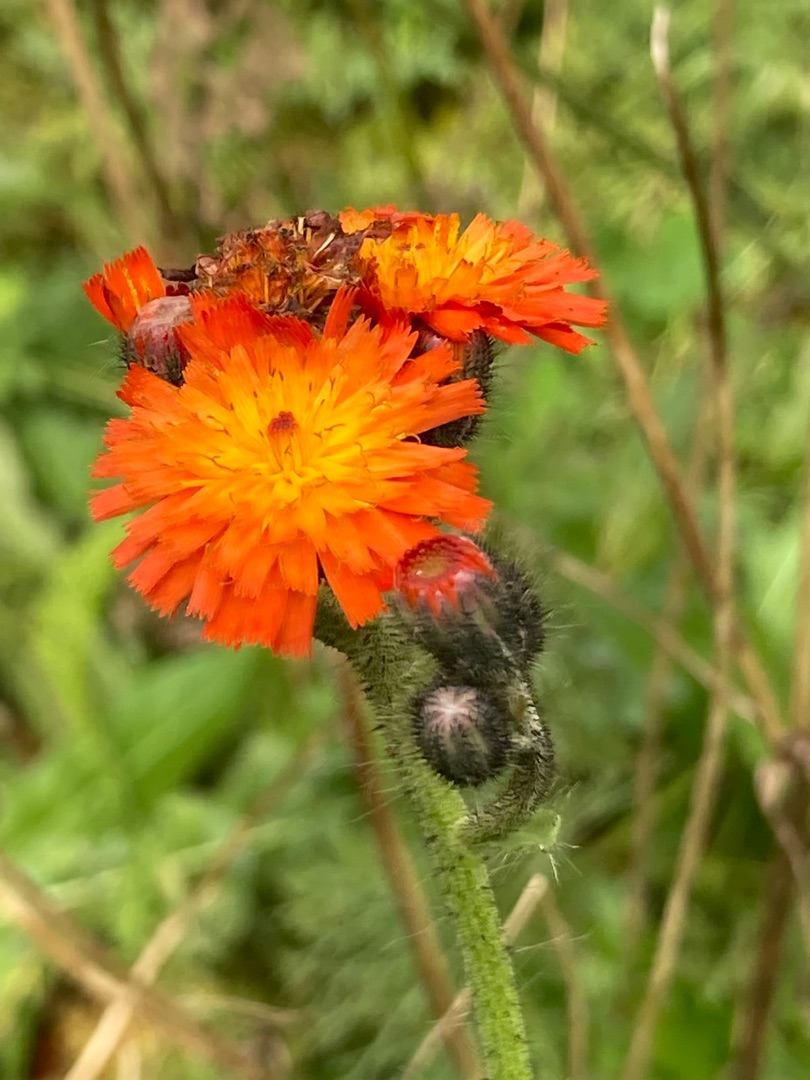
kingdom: Plantae
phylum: Tracheophyta
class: Magnoliopsida
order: Asterales
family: Asteraceae
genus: Pilosella
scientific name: Pilosella aurantiaca
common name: Pomerans-høgeurt
